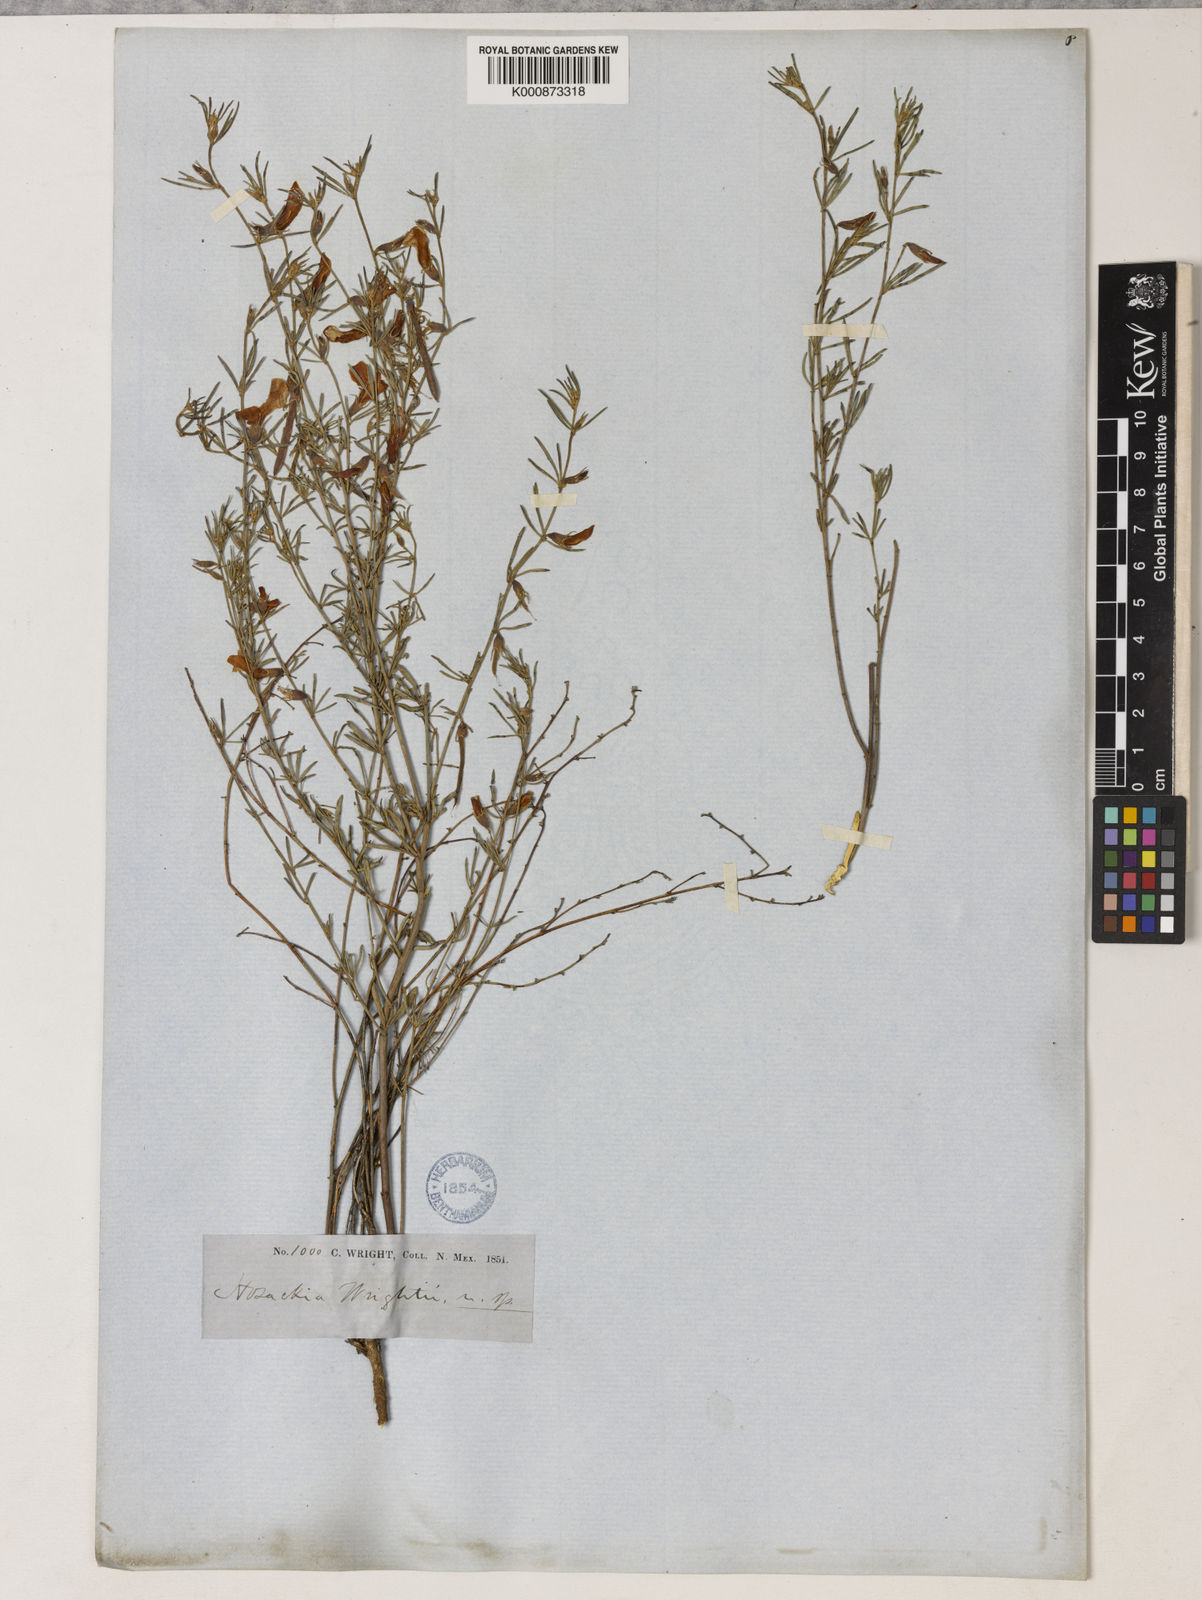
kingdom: Plantae
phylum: Tracheophyta
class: Magnoliopsida
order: Fabales
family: Fabaceae
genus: Acmispon
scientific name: Acmispon wrightii
